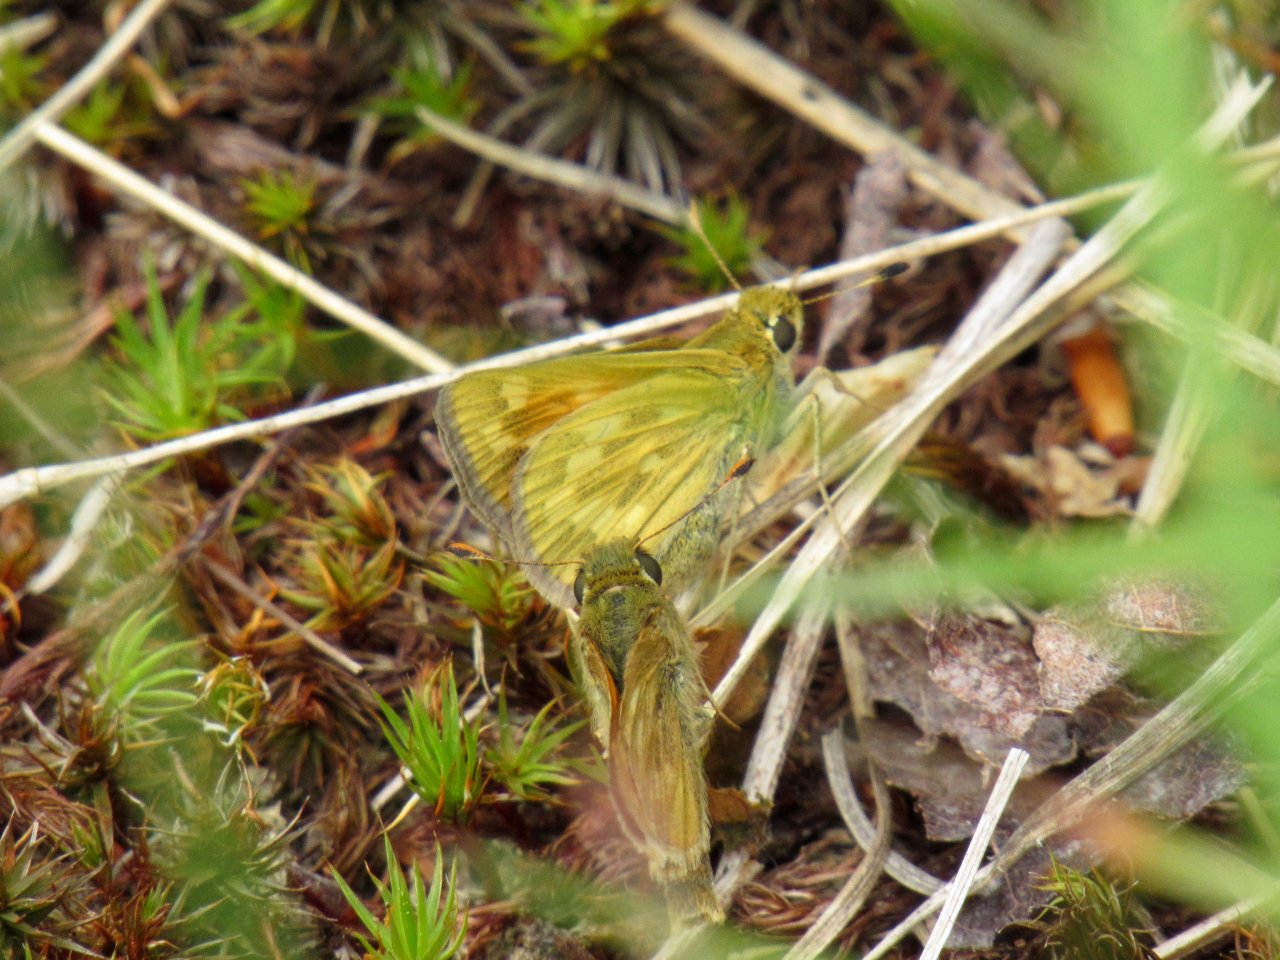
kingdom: Animalia
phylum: Arthropoda
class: Insecta
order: Lepidoptera
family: Hesperiidae
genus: Hesperia
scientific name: Hesperia sassacus
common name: Sassacus Skipper
